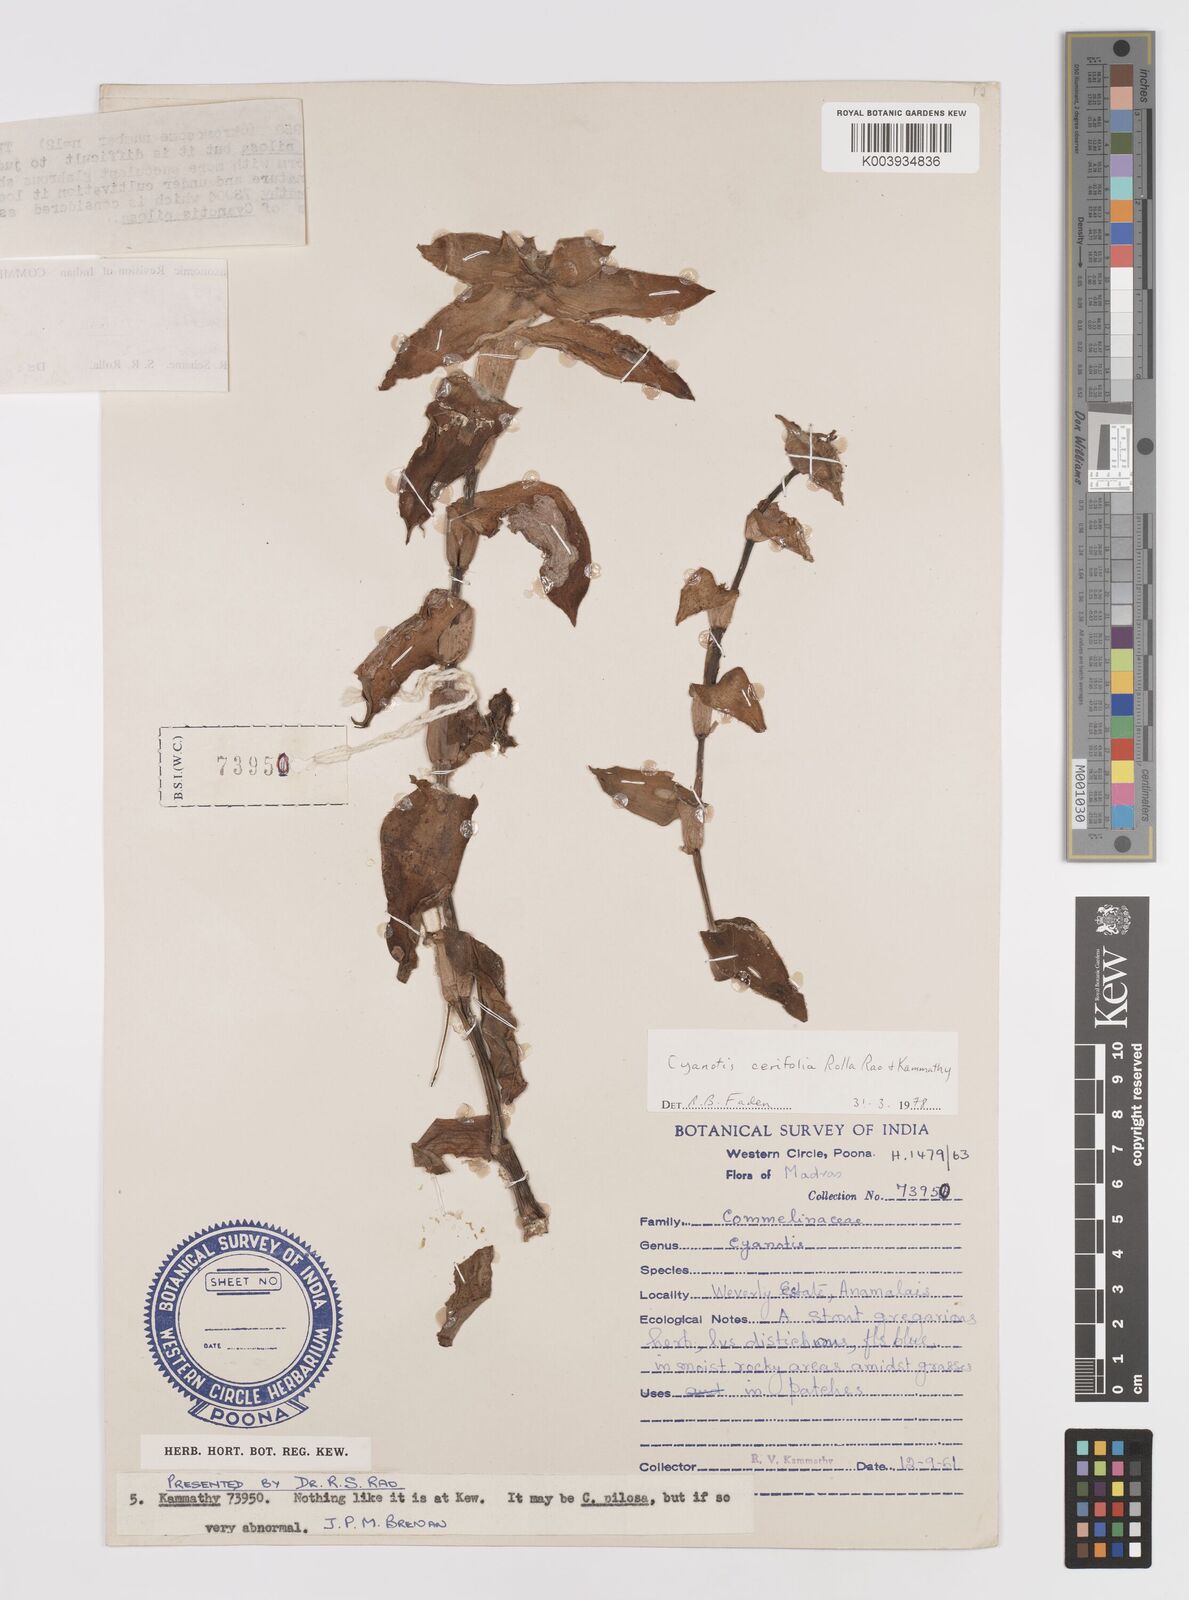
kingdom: Plantae
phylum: Tracheophyta
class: Liliopsida
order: Commelinales
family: Commelinaceae
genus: Cyanotis
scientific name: Cyanotis villosa
